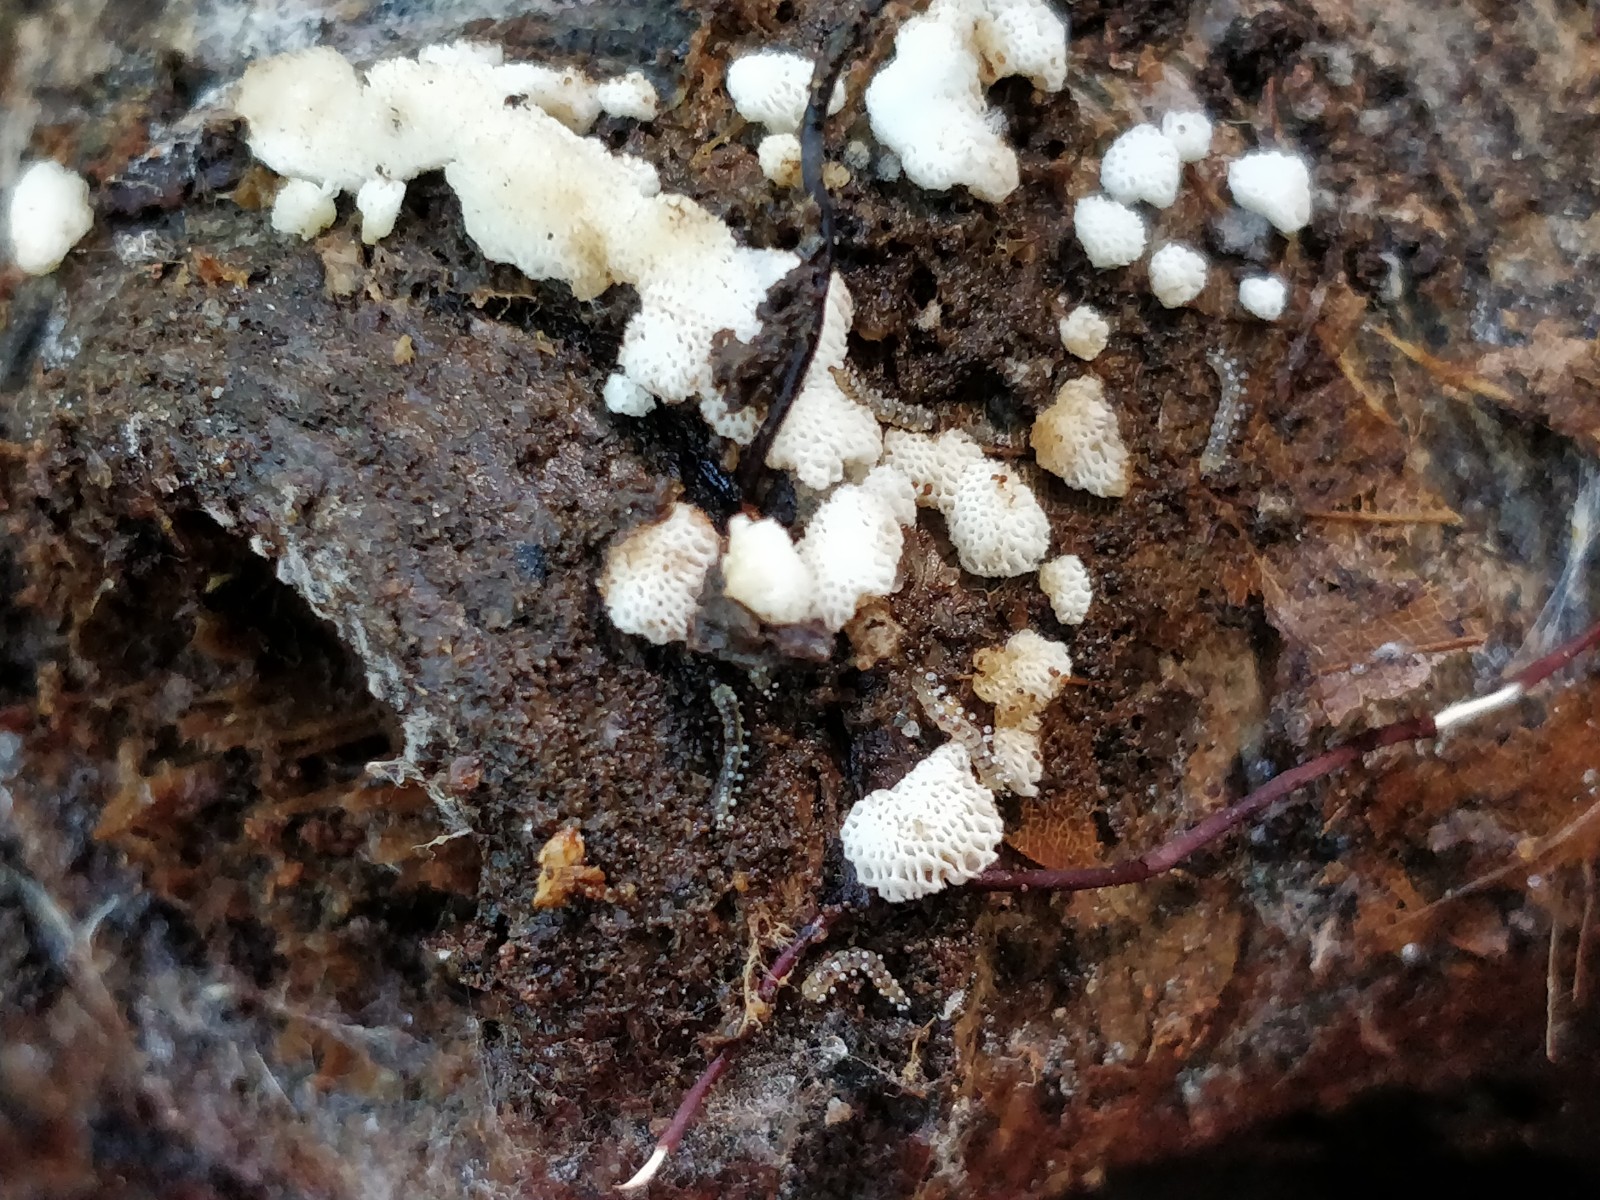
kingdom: Fungi
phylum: Basidiomycota
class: Agaricomycetes
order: Polyporales
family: Meripilaceae
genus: Rigidoporus
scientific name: Rigidoporus sanguinolentus
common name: blod-skorpeporesvamp
